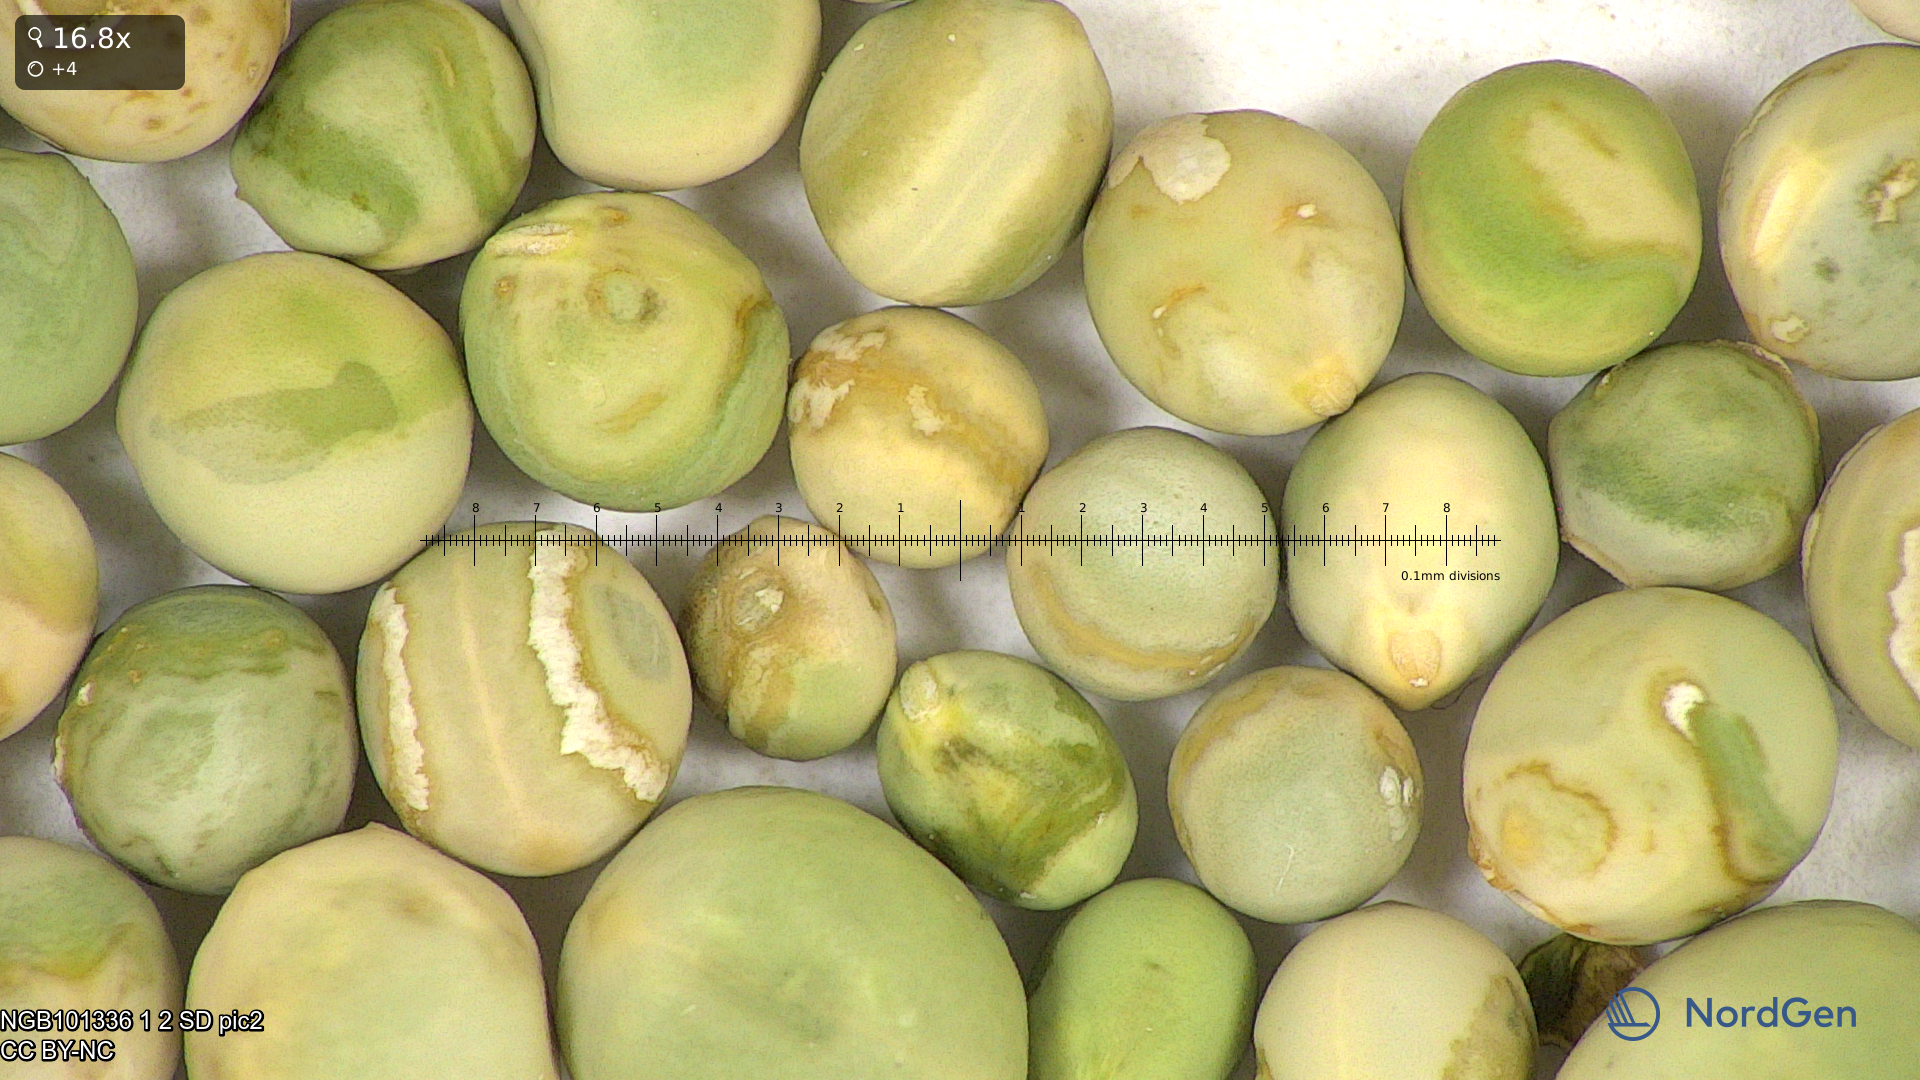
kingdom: Plantae
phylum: Tracheophyta
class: Magnoliopsida
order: Fabales
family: Fabaceae
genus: Lathyrus
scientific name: Lathyrus oleraceus
